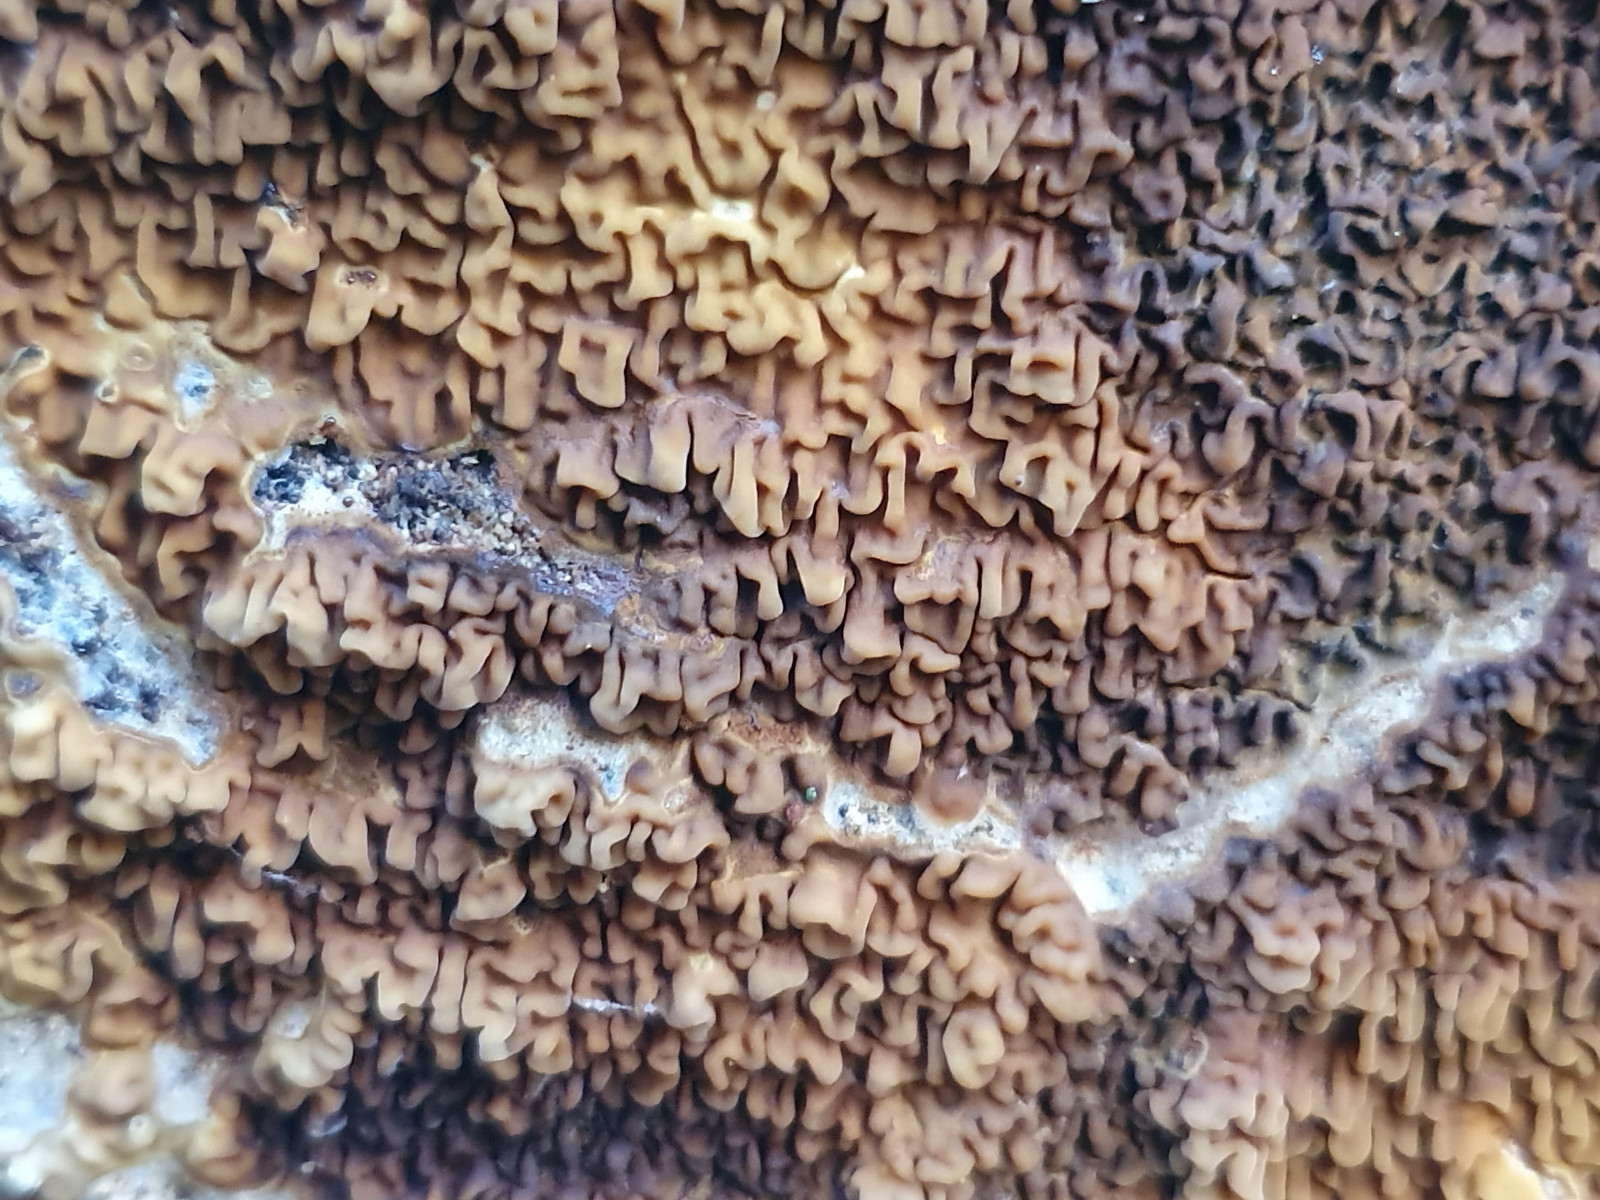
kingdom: Fungi
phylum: Basidiomycota
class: Agaricomycetes
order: Boletales
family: Serpulaceae
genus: Serpula
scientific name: Serpula himantioides
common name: tyndkødet hussvamp
